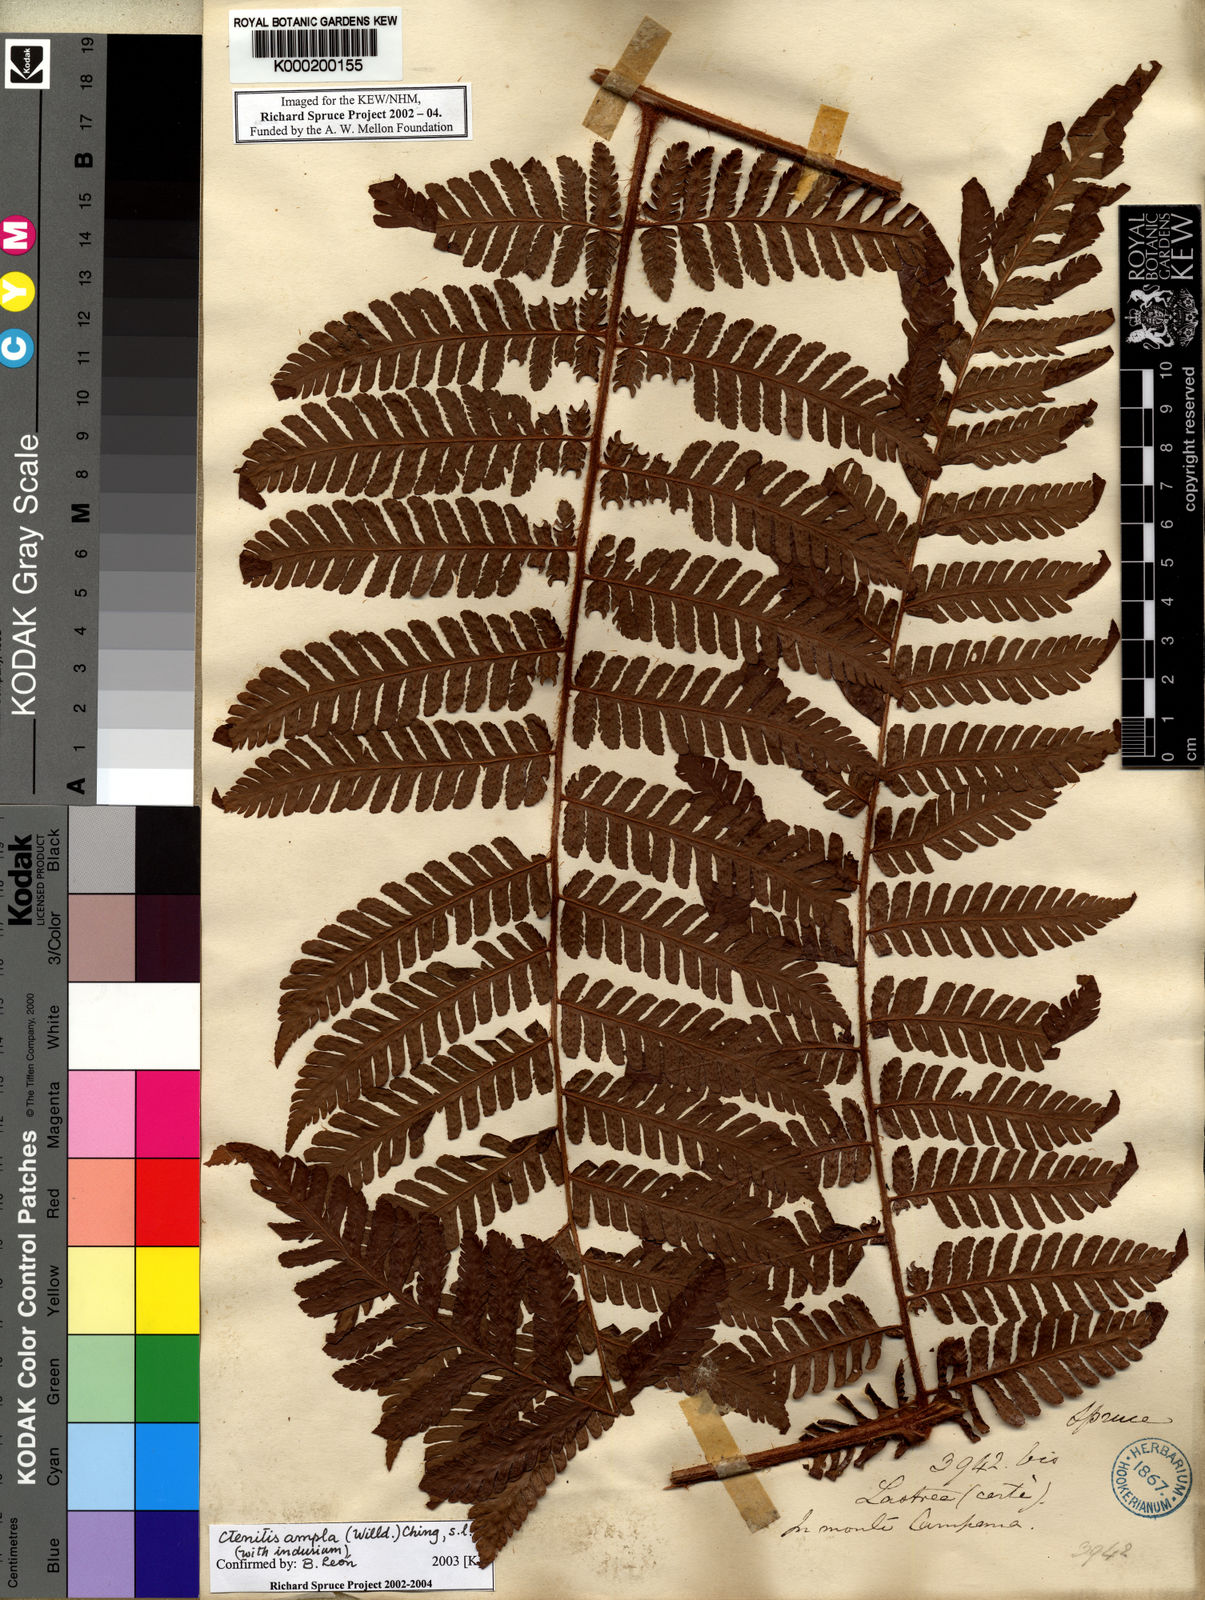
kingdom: Plantae
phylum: Tracheophyta
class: Polypodiopsida
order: Polypodiales
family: Dryopteridaceae
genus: Ctenitis
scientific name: Ctenitis sloanei
